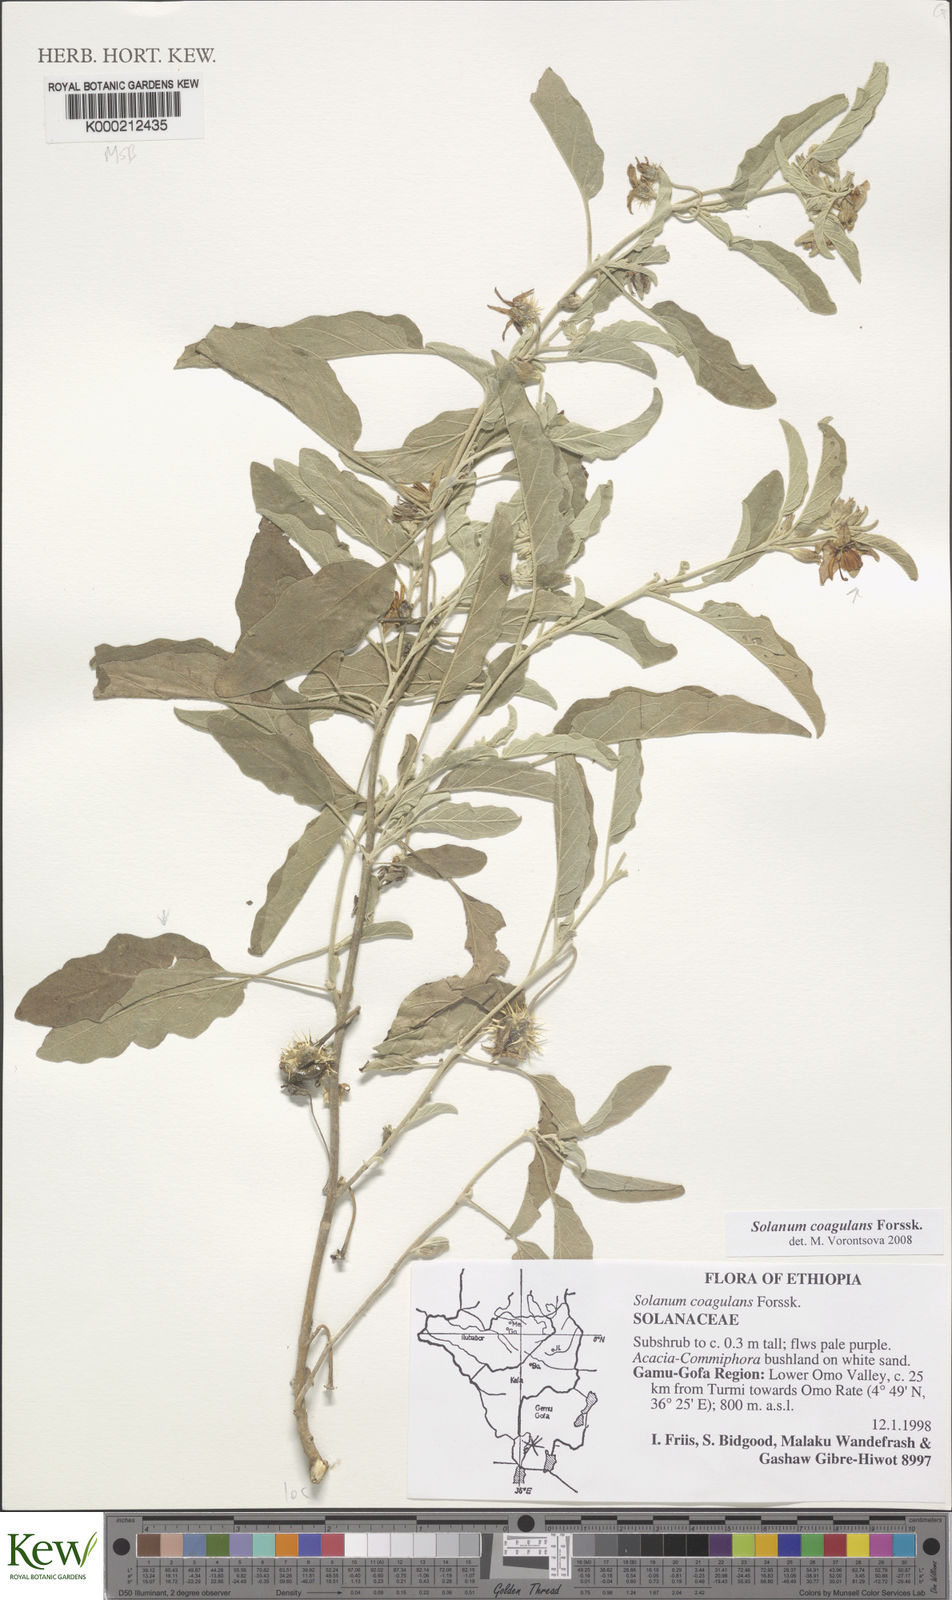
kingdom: Plantae
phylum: Tracheophyta
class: Magnoliopsida
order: Solanales
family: Solanaceae
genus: Solanum
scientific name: Solanum coagulans
